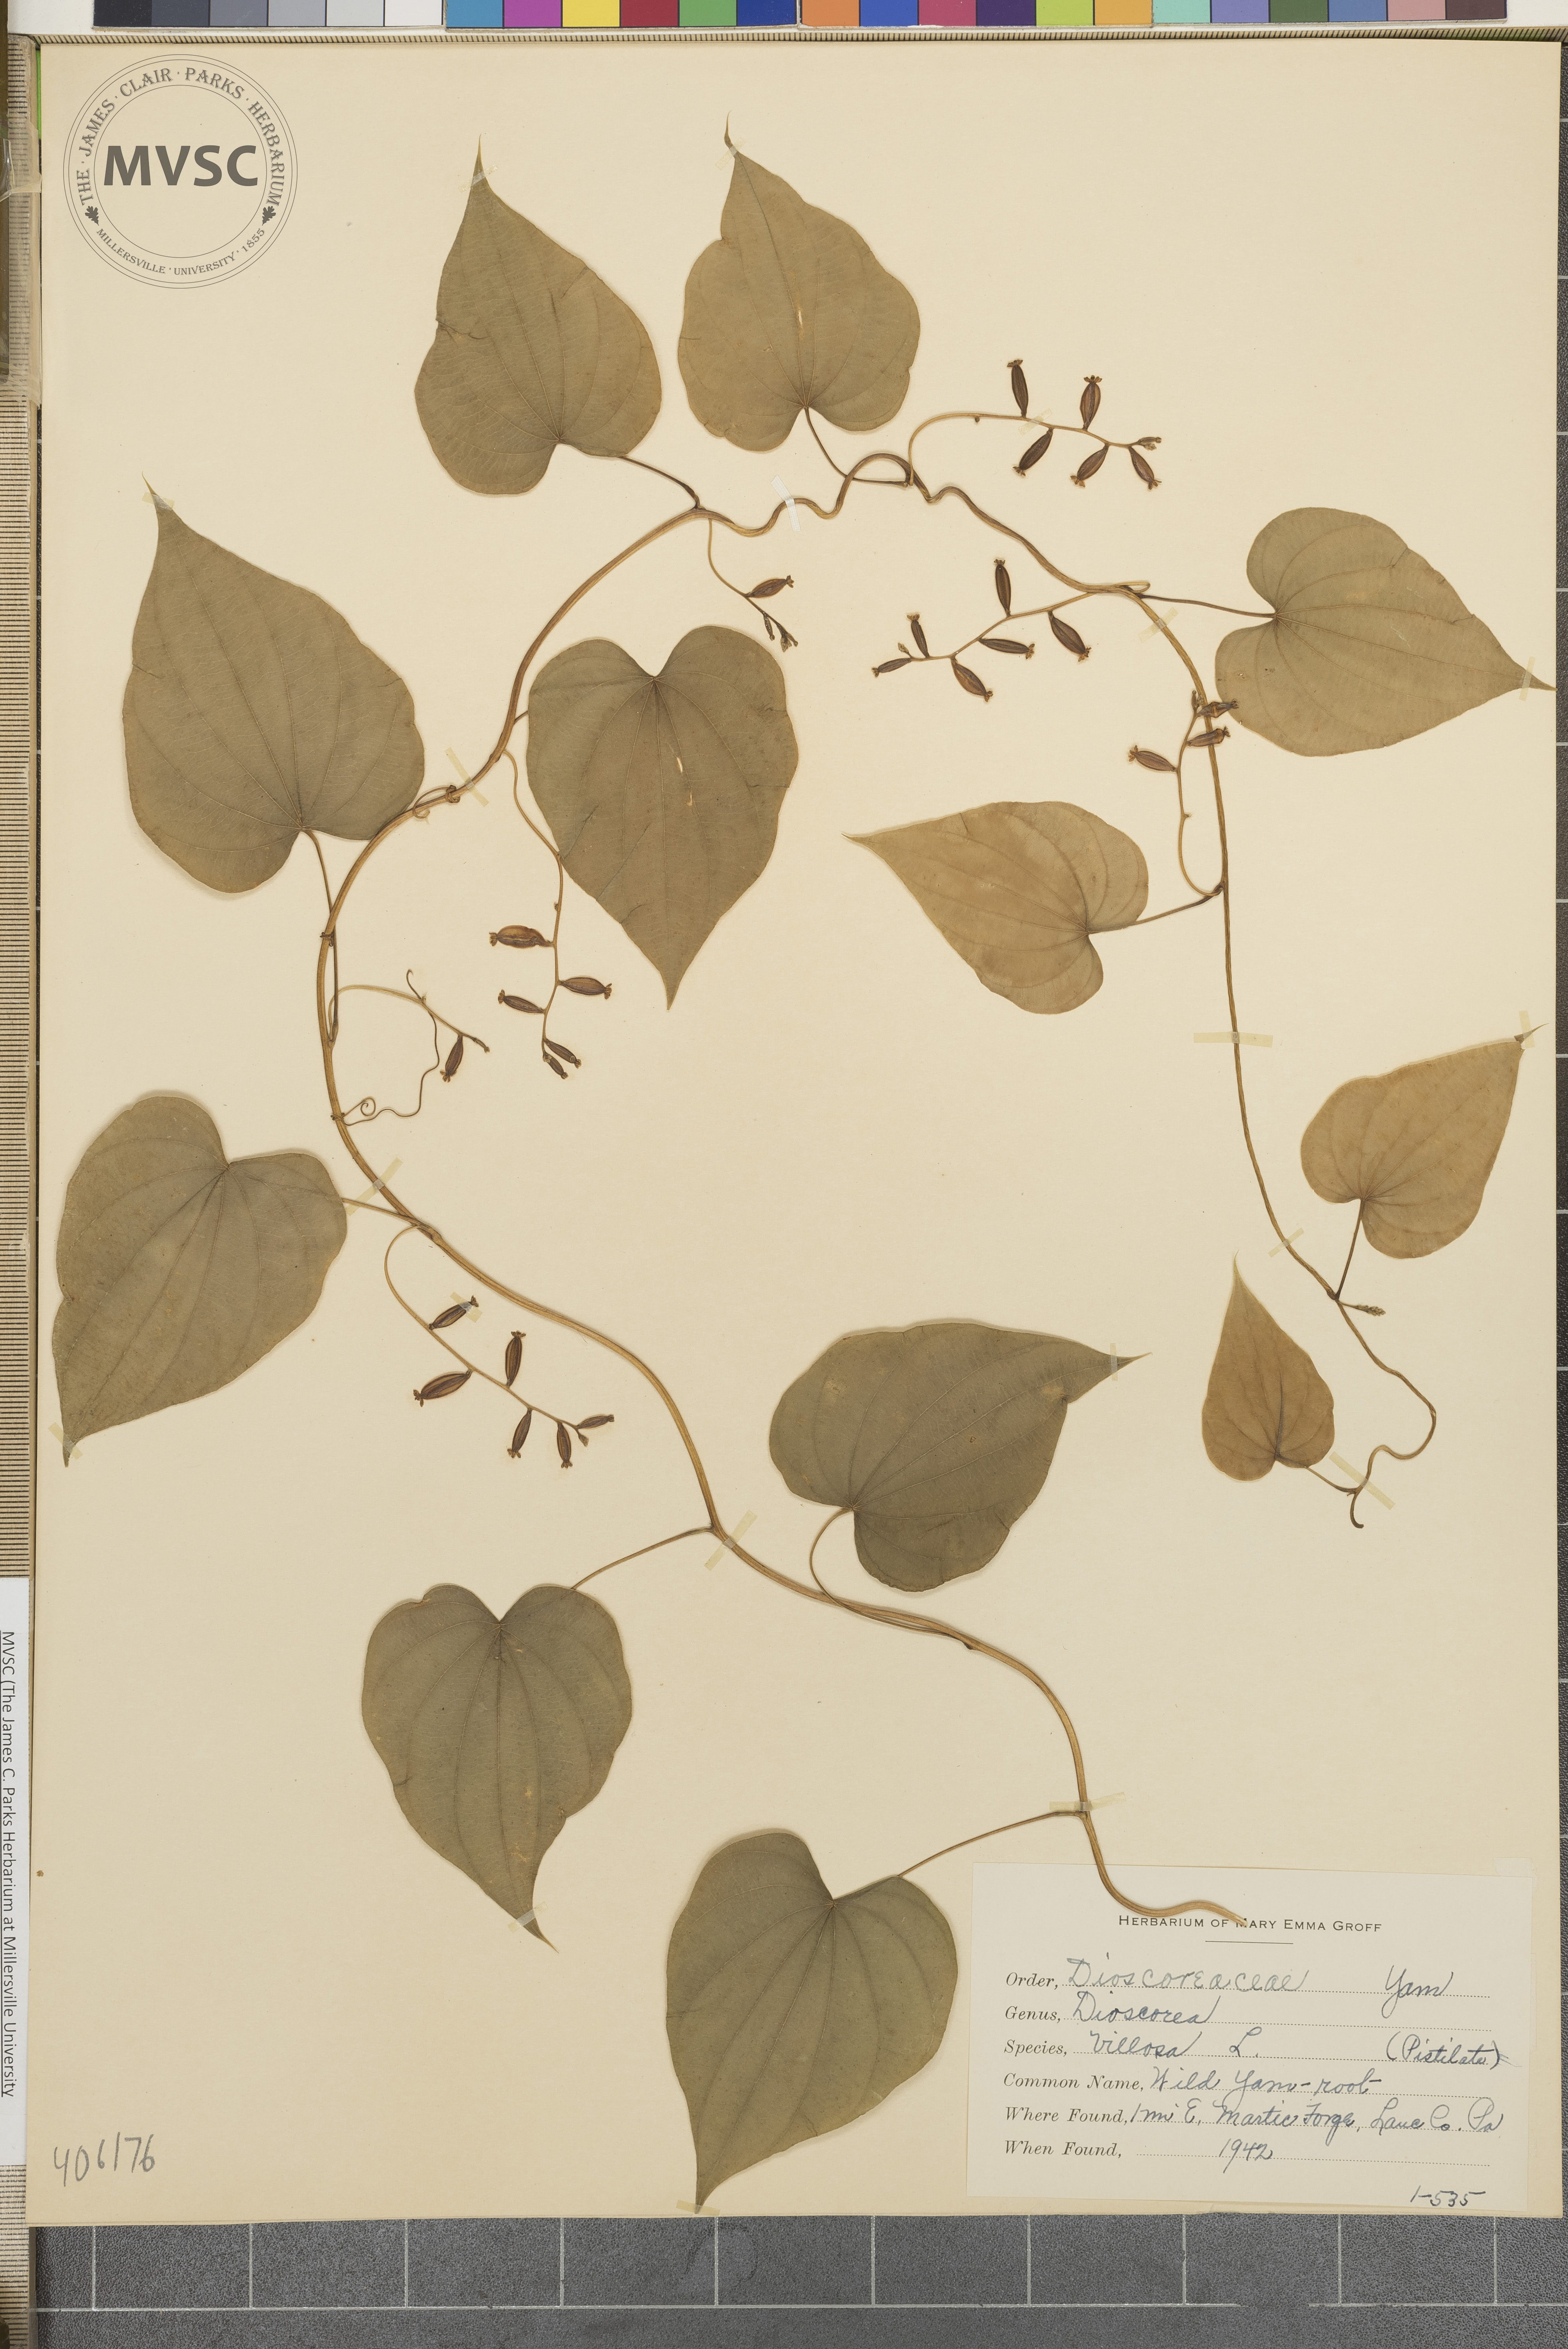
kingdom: Plantae
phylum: Tracheophyta
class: Liliopsida
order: Dioscoreales
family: Dioscoreaceae
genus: Dioscorea
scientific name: Dioscorea villosa
